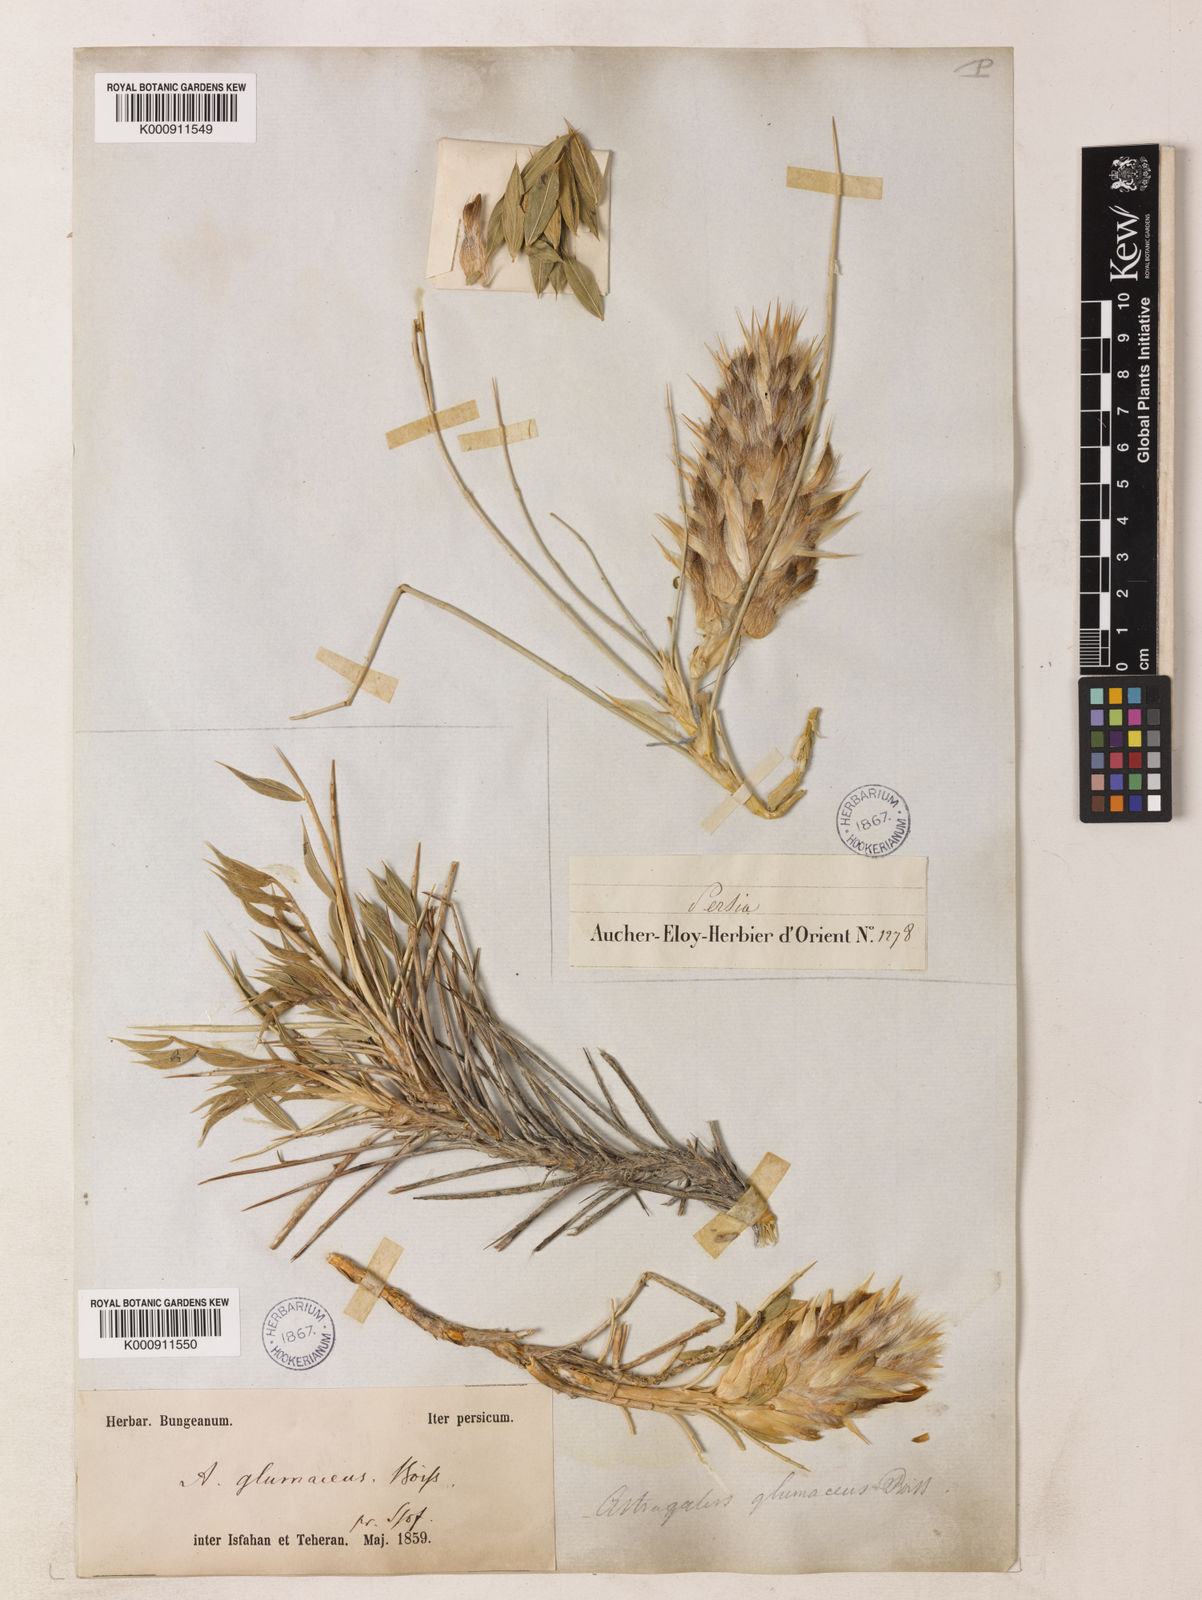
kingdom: Plantae
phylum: Tracheophyta
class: Magnoliopsida
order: Fabales
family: Fabaceae
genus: Astragalus
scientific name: Astragalus glumaceus
